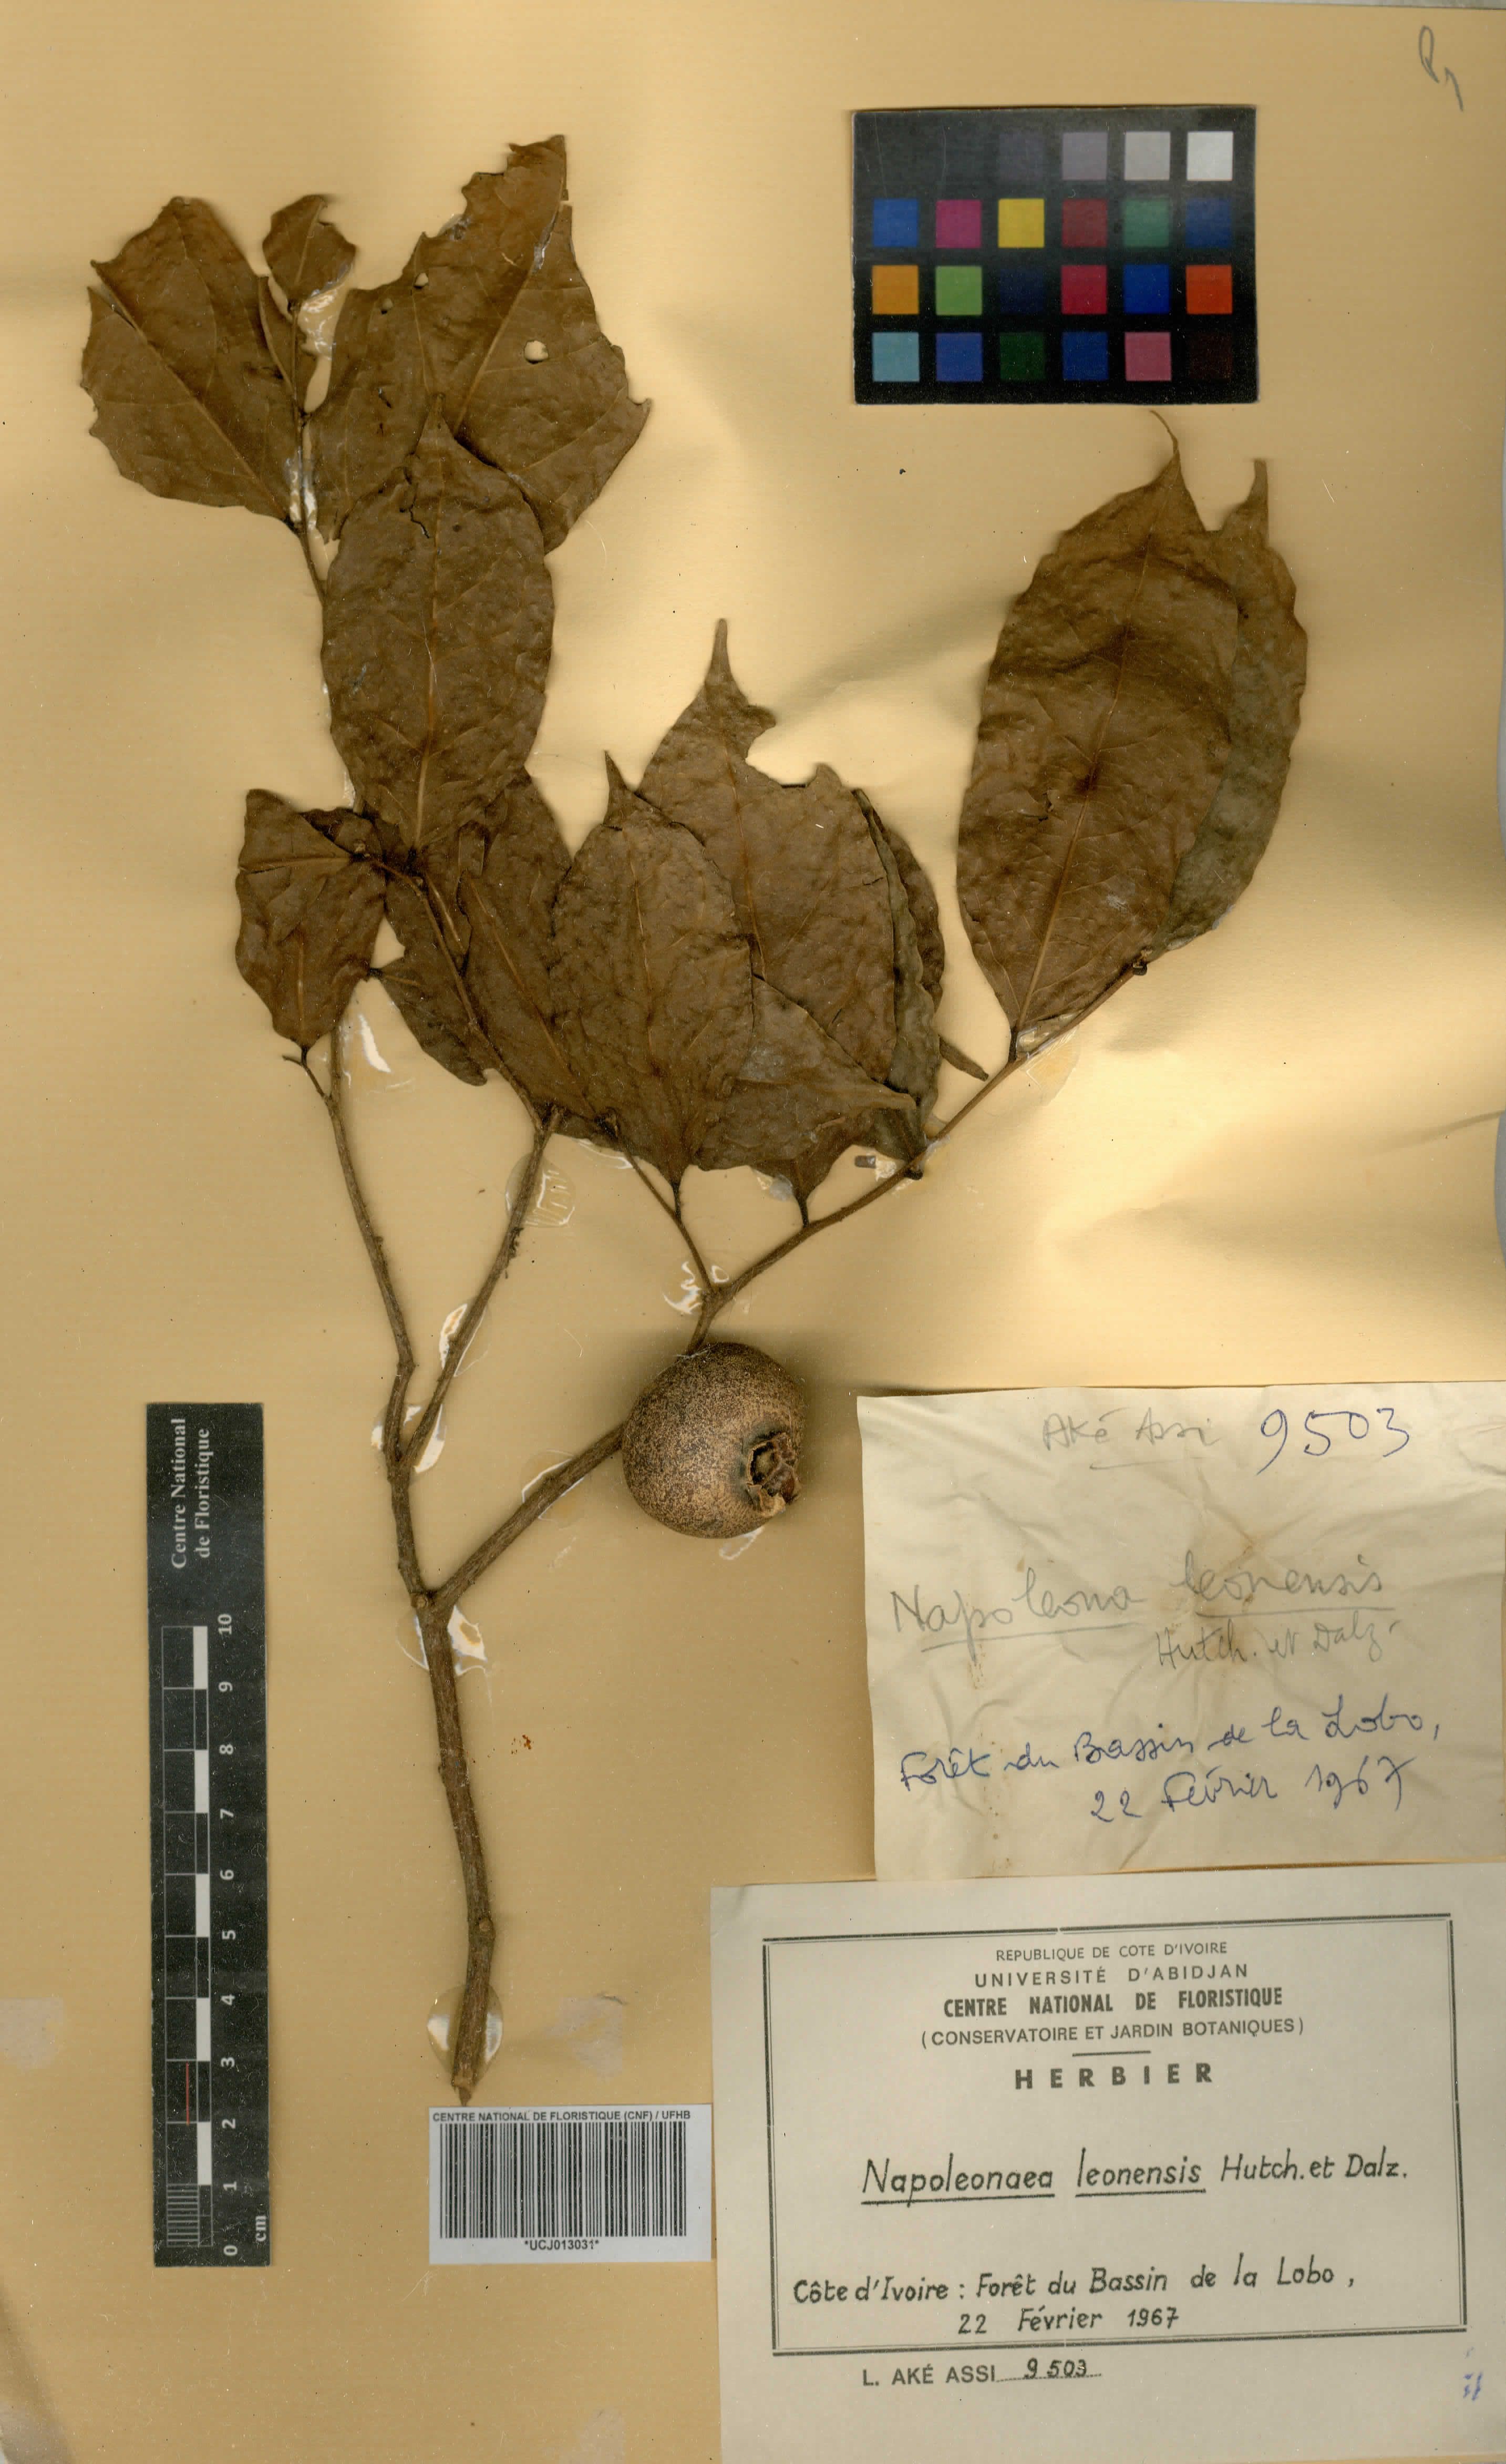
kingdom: Plantae
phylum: Tracheophyta
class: Magnoliopsida
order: Ericales
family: Lecythidaceae
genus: Napoleonaea
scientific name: Napoleonaea leonensis
